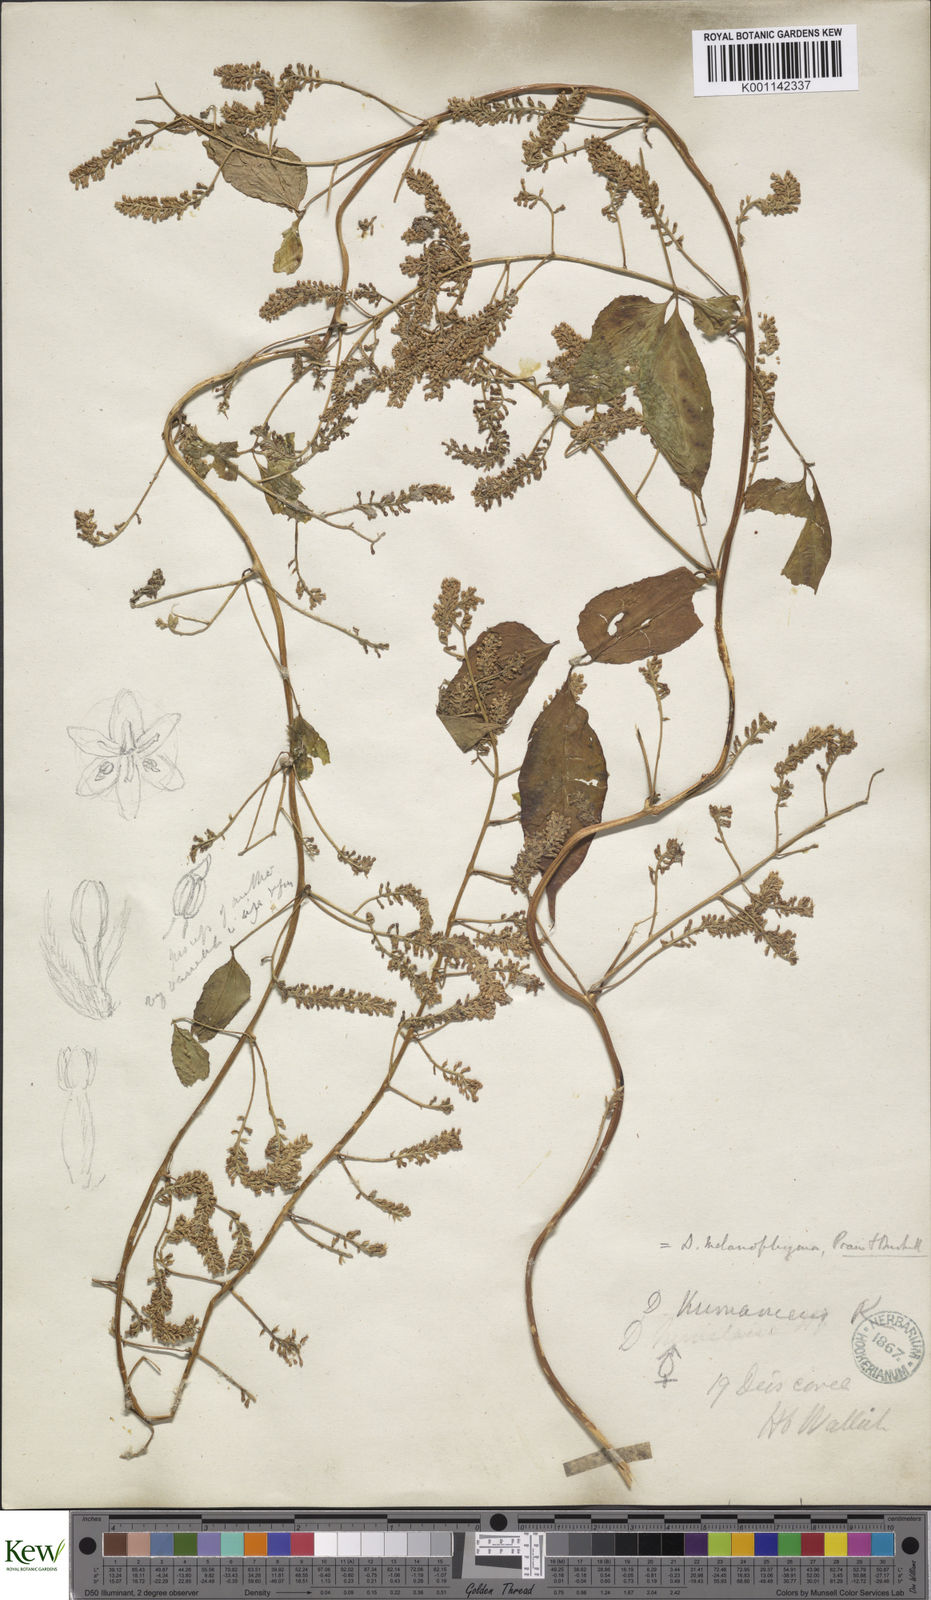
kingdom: Plantae
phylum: Tracheophyta
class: Liliopsida
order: Dioscoreales
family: Dioscoreaceae
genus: Dioscorea
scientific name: Dioscorea melanophyma
